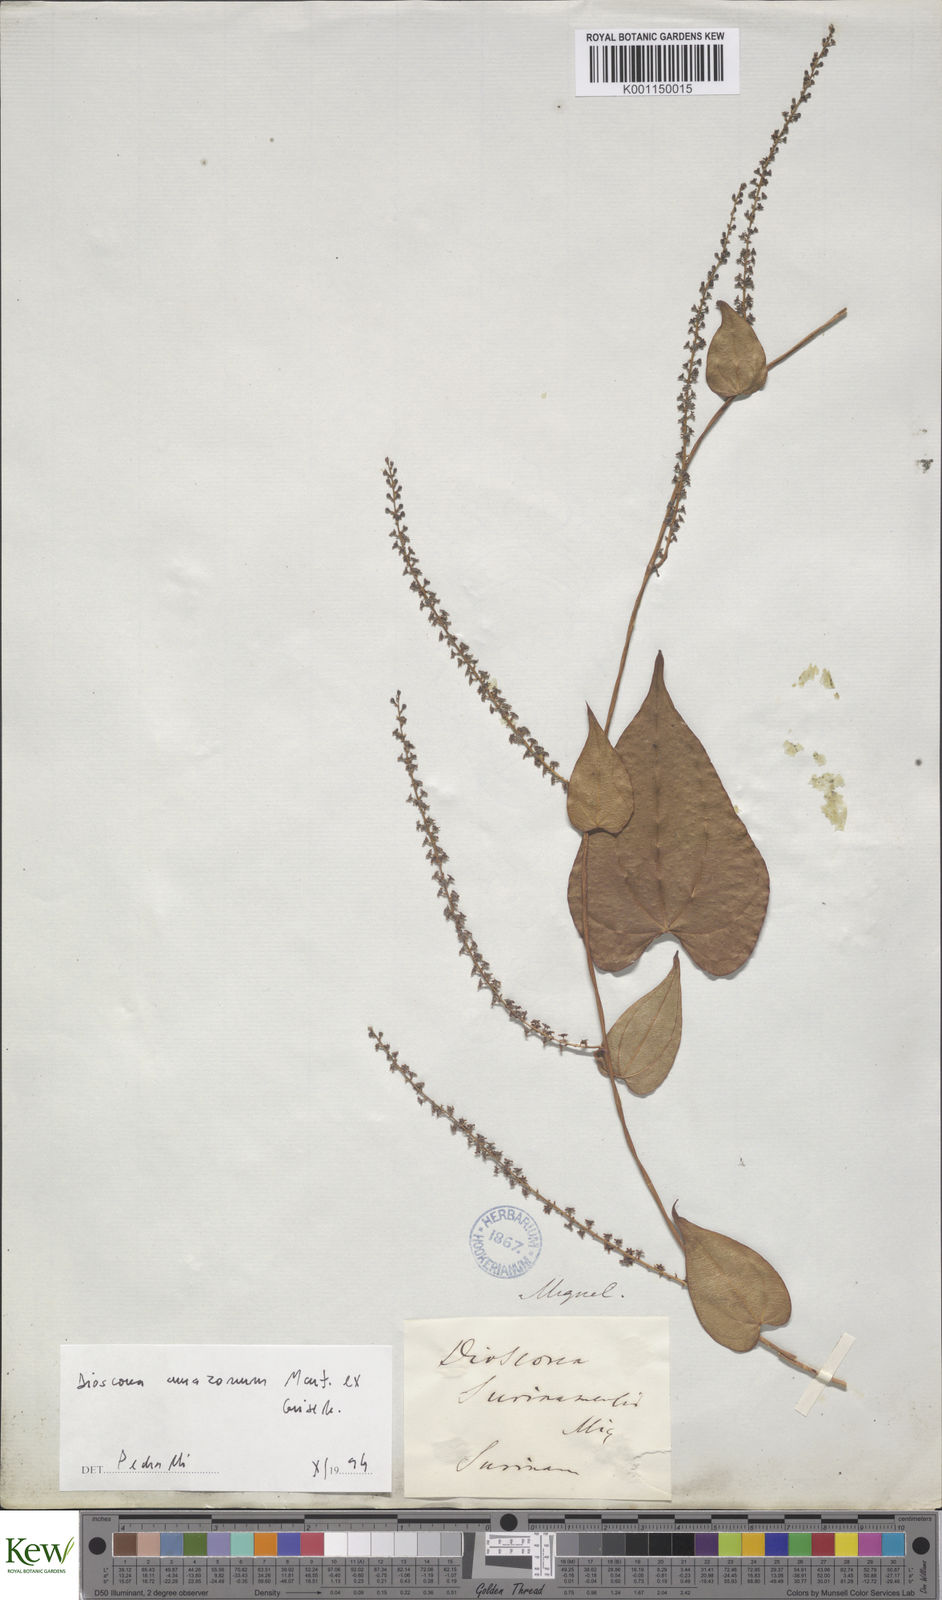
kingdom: Plantae
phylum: Tracheophyta
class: Liliopsida
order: Dioscoreales
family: Dioscoreaceae
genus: Dioscorea
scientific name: Dioscorea amazonum
